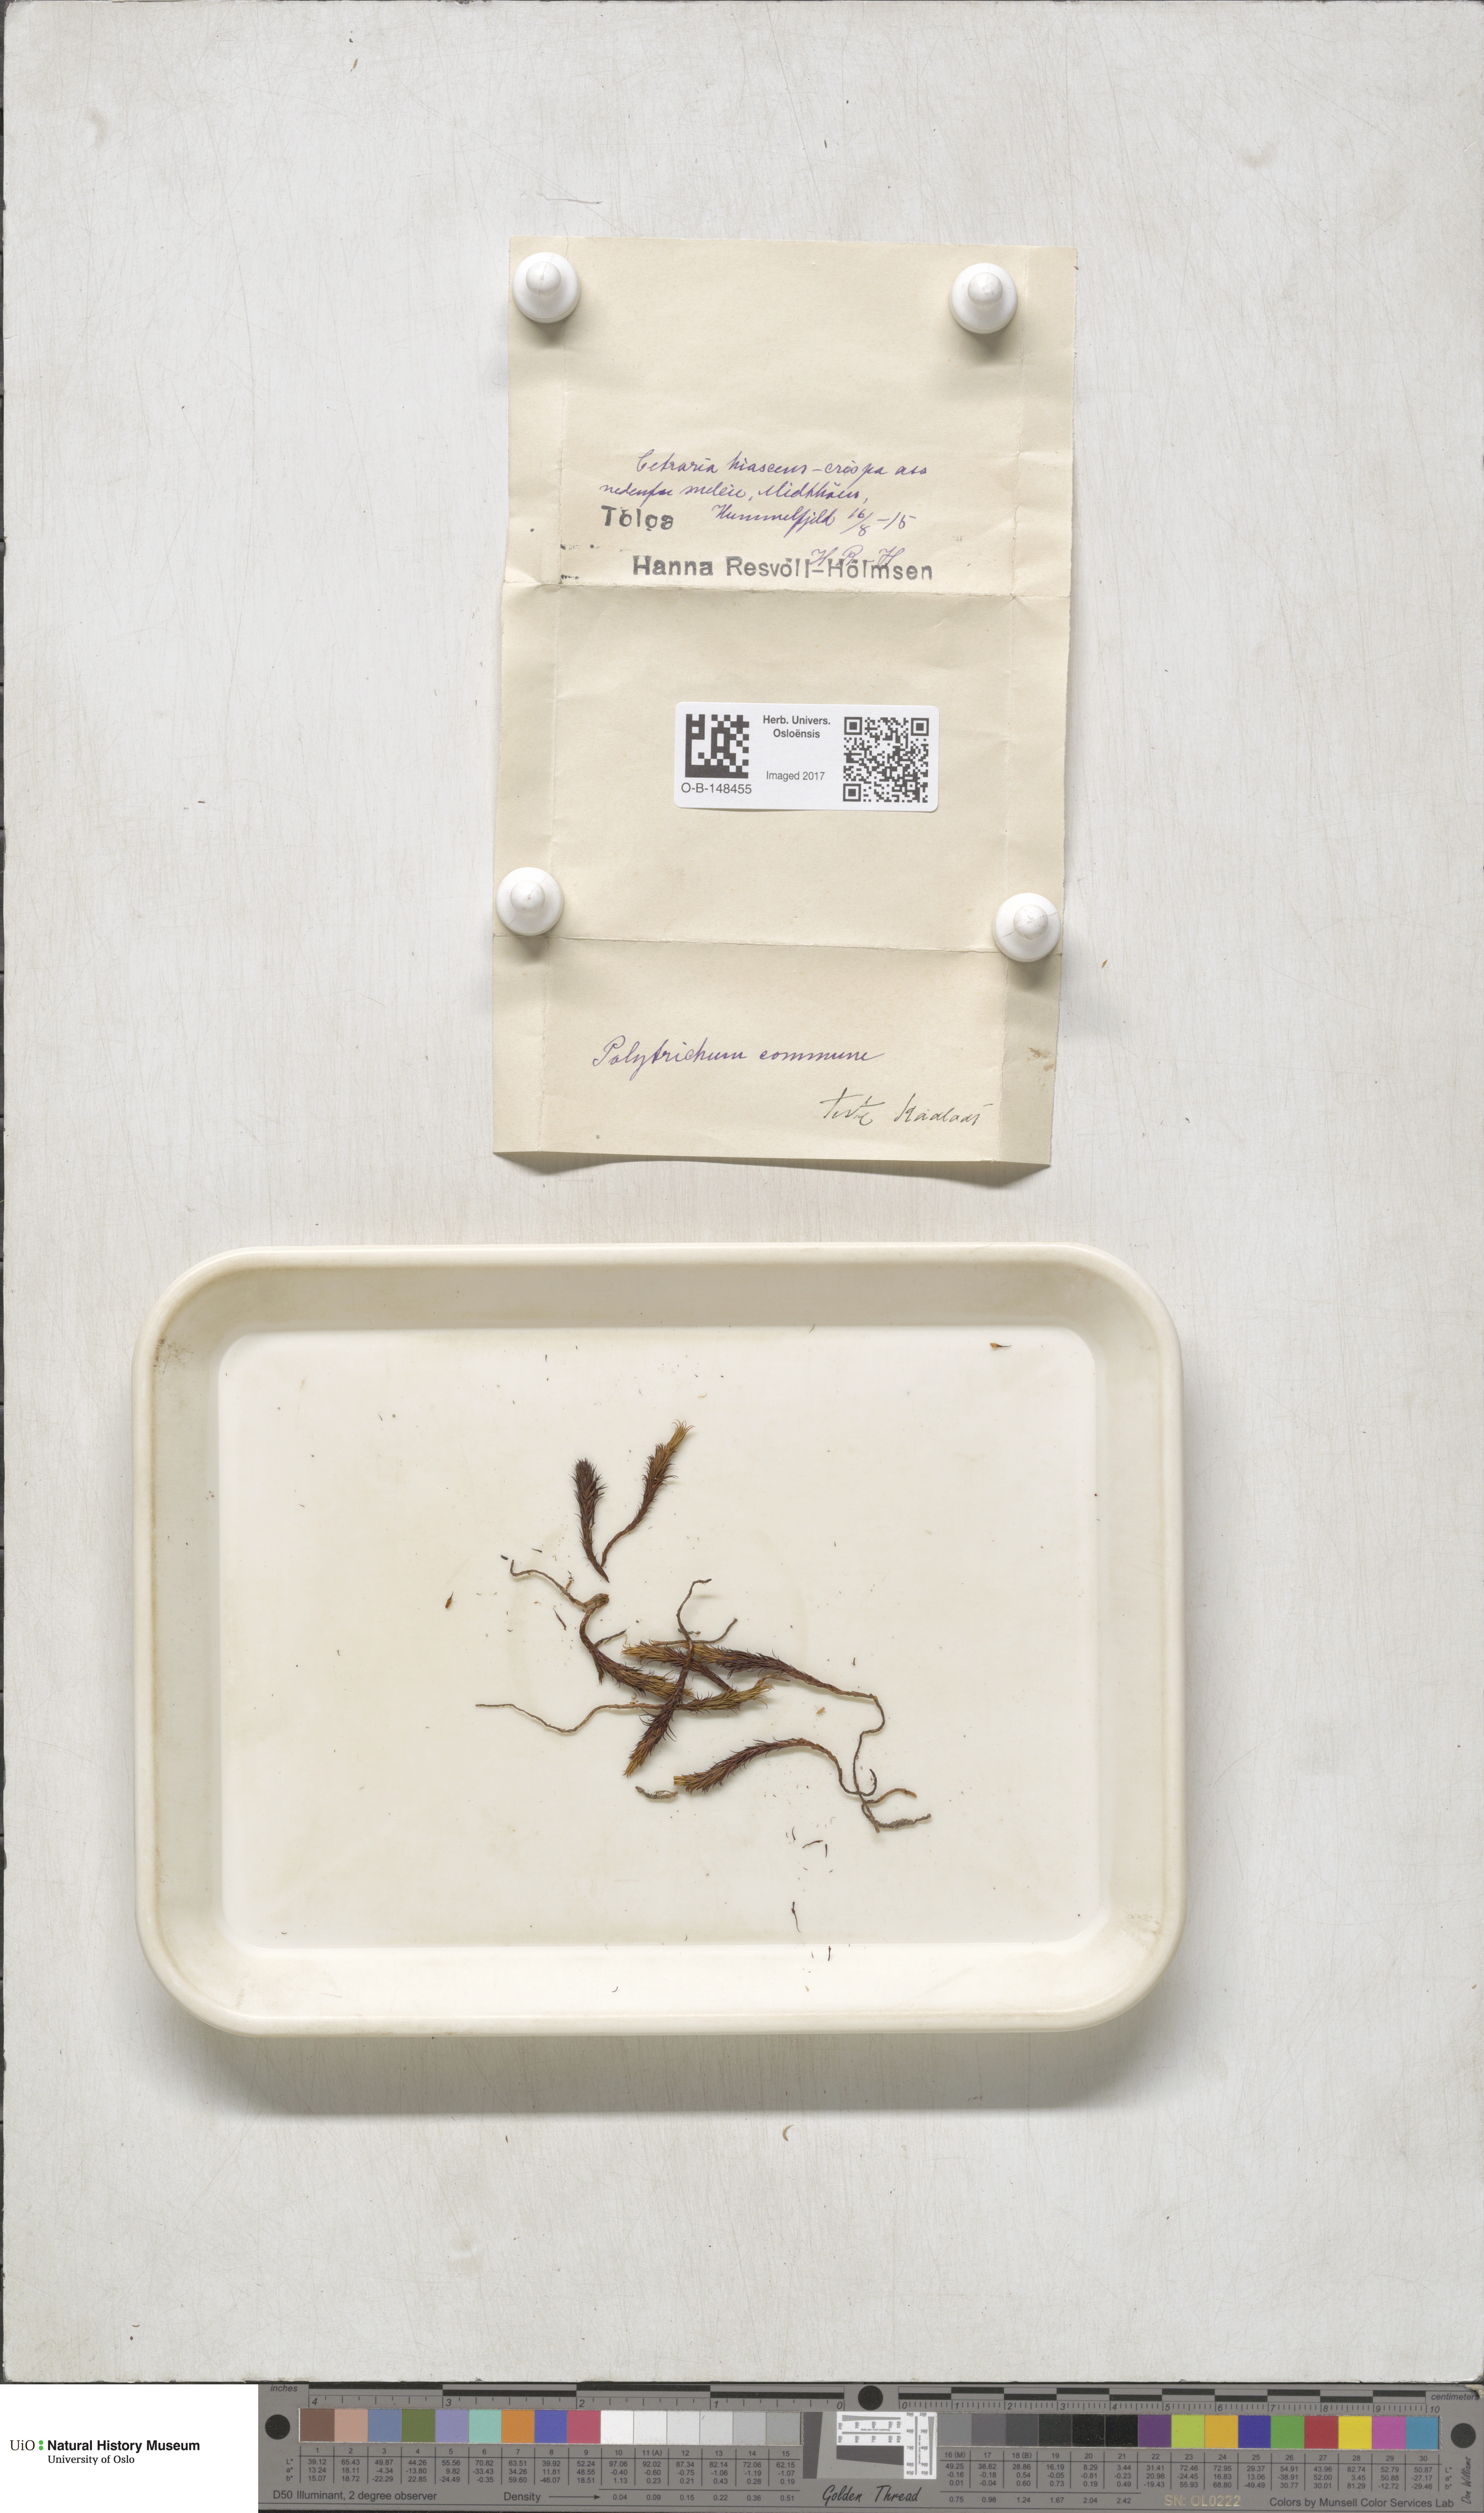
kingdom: Plantae
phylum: Bryophyta
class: Polytrichopsida
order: Polytrichales
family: Polytrichaceae
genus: Polytrichum
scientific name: Polytrichum commune
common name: Common haircap
